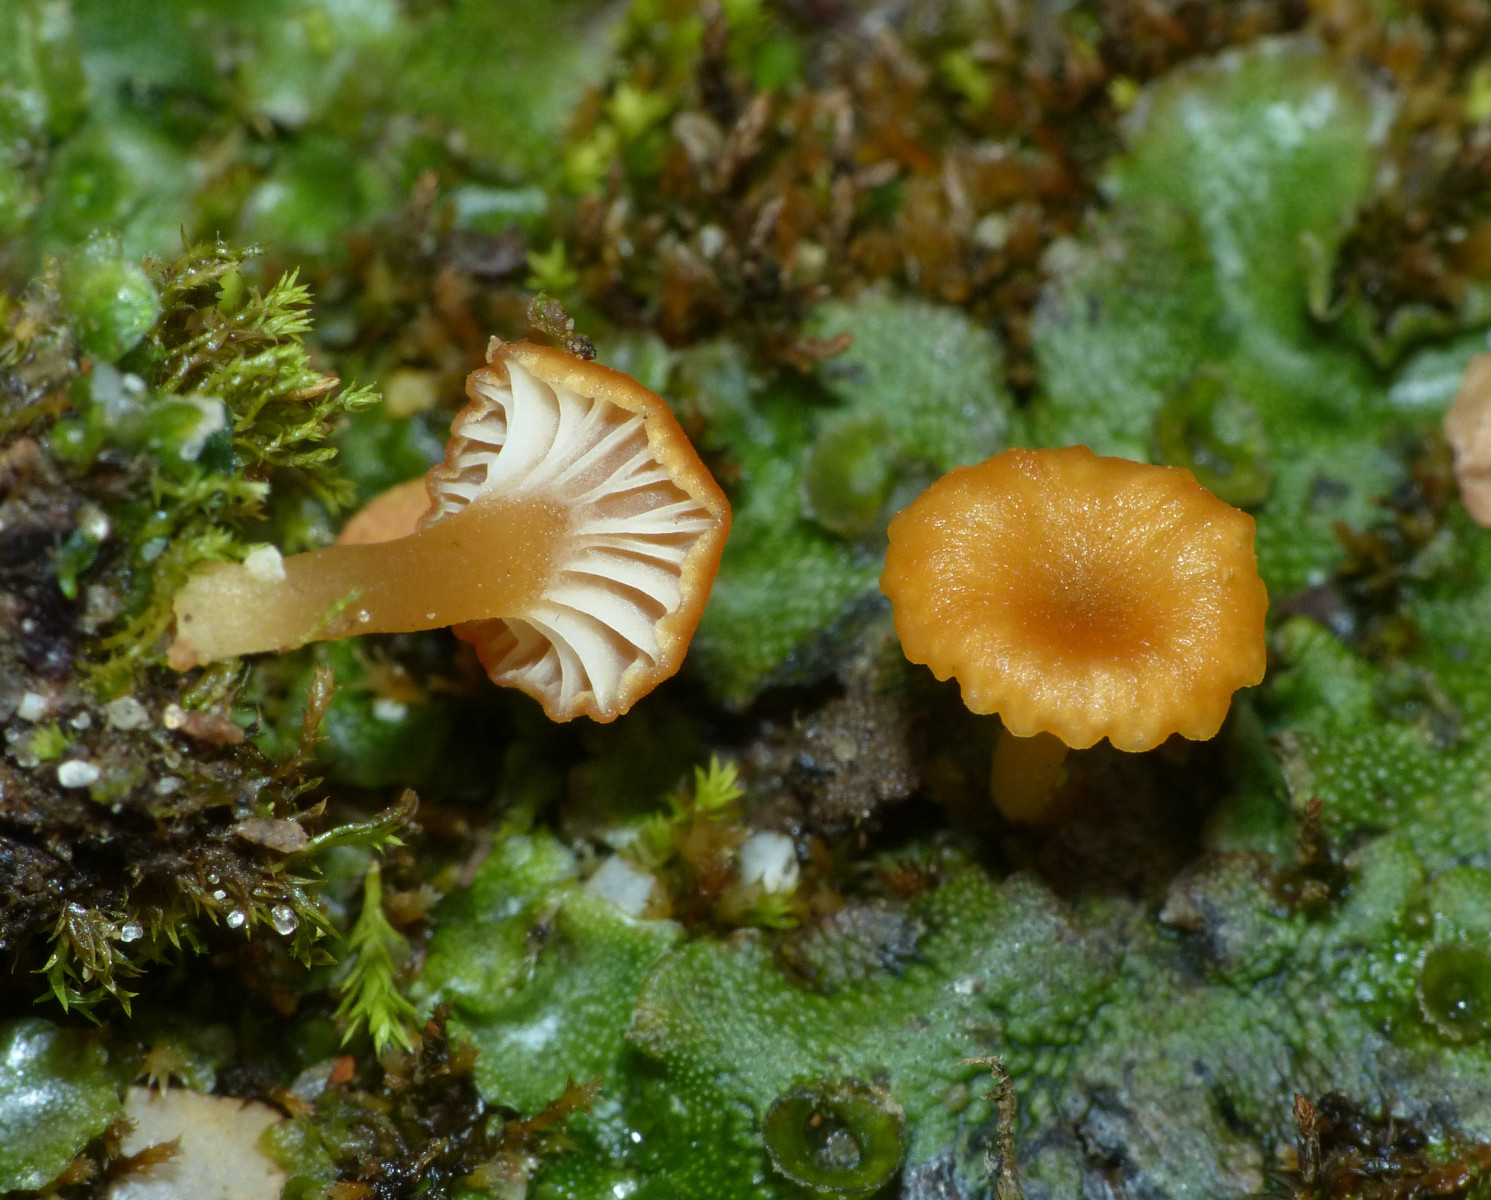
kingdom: Fungi
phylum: Basidiomycota
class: Agaricomycetes
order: Hymenochaetales
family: Rickenellaceae
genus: Loreleia
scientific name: Loreleia marchantiae
